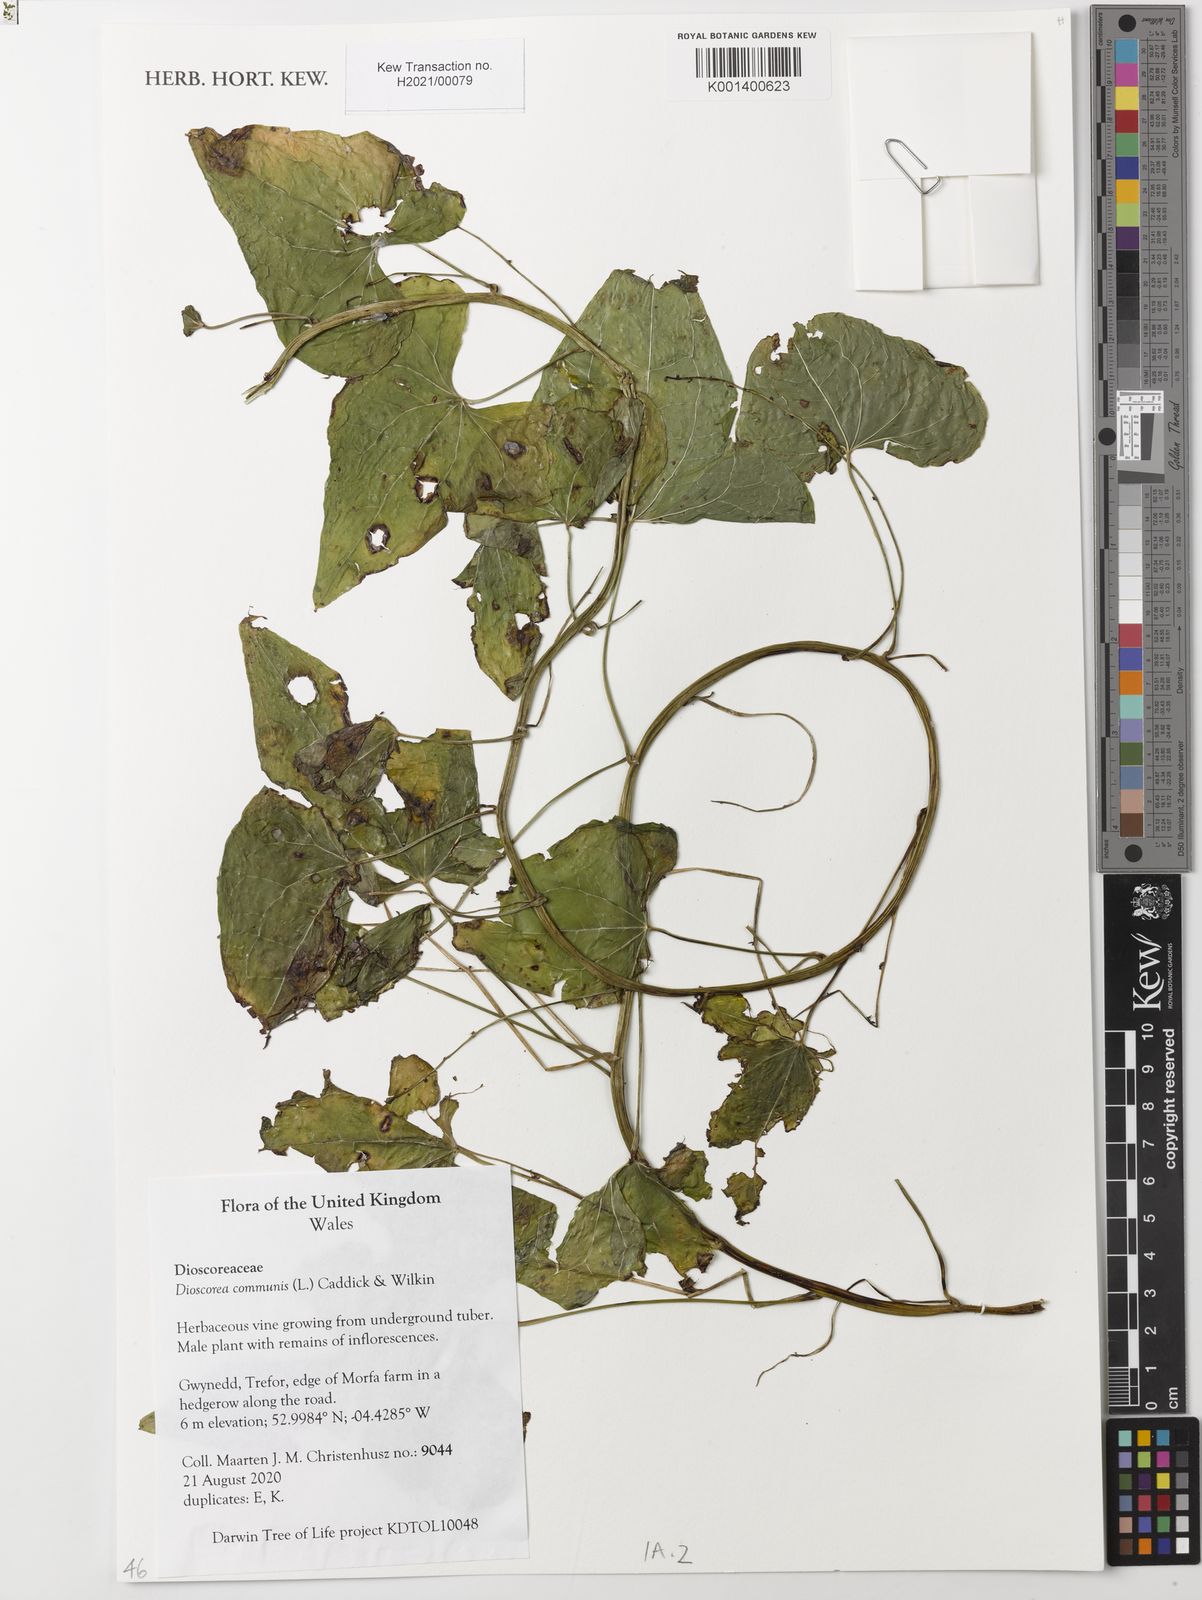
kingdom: Plantae
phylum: Tracheophyta
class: Liliopsida
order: Dioscoreales
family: Dioscoreaceae
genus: Dioscorea
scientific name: Dioscorea communis
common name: Black-bindweed
